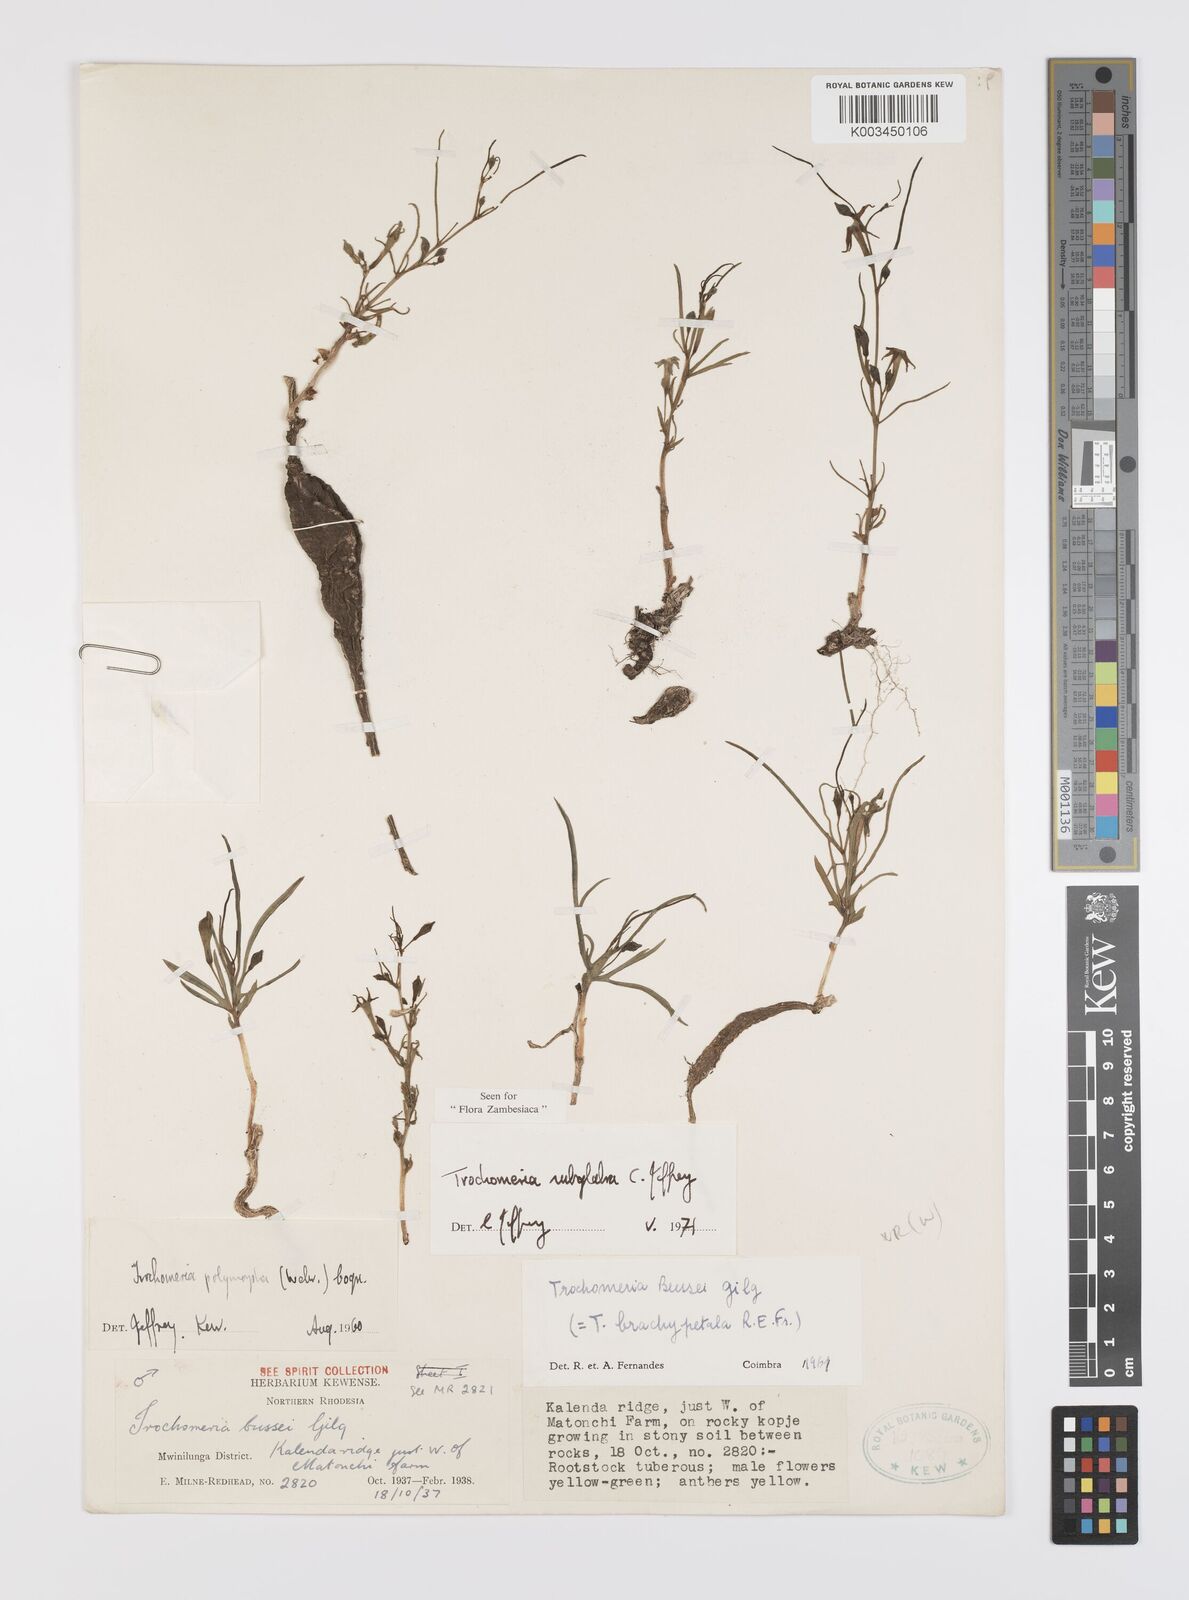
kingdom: Plantae
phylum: Tracheophyta
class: Magnoliopsida
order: Cucurbitales
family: Cucurbitaceae
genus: Trochomeria
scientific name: Trochomeria subglabra
